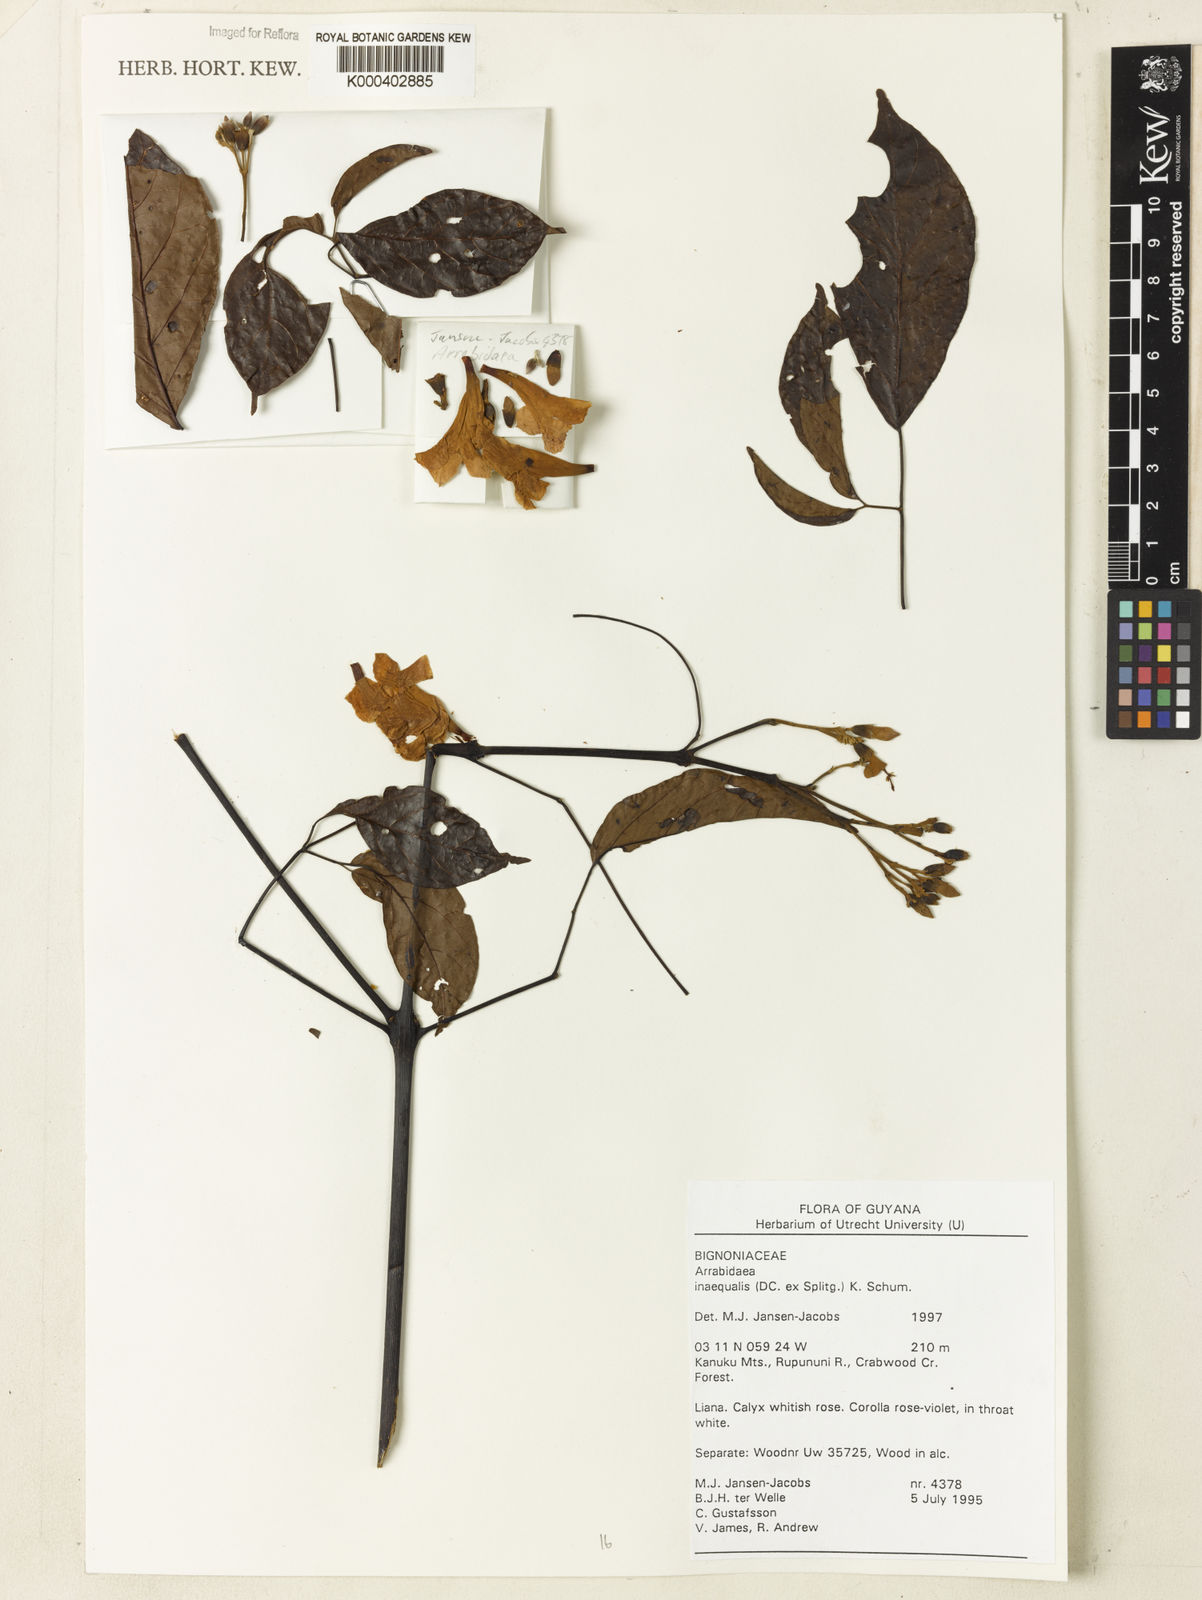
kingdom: Plantae
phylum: Tracheophyta
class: Magnoliopsida
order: Lamiales
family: Bignoniaceae
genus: Cuspidaria
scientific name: Cuspidaria inaequalis
